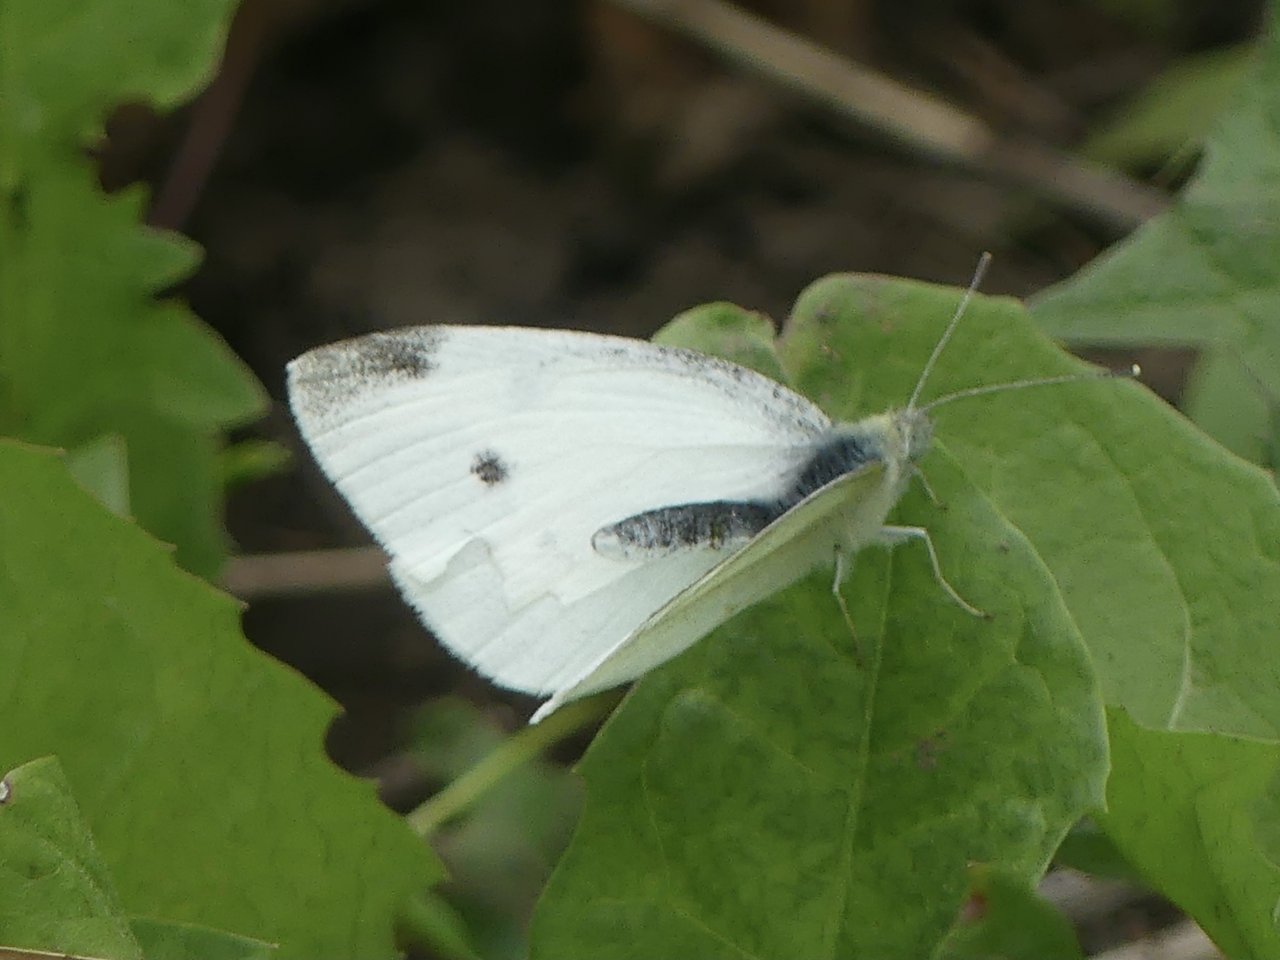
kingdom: Animalia
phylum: Arthropoda
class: Insecta
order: Lepidoptera
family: Pieridae
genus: Pieris
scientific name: Pieris rapae
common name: Cabbage White
